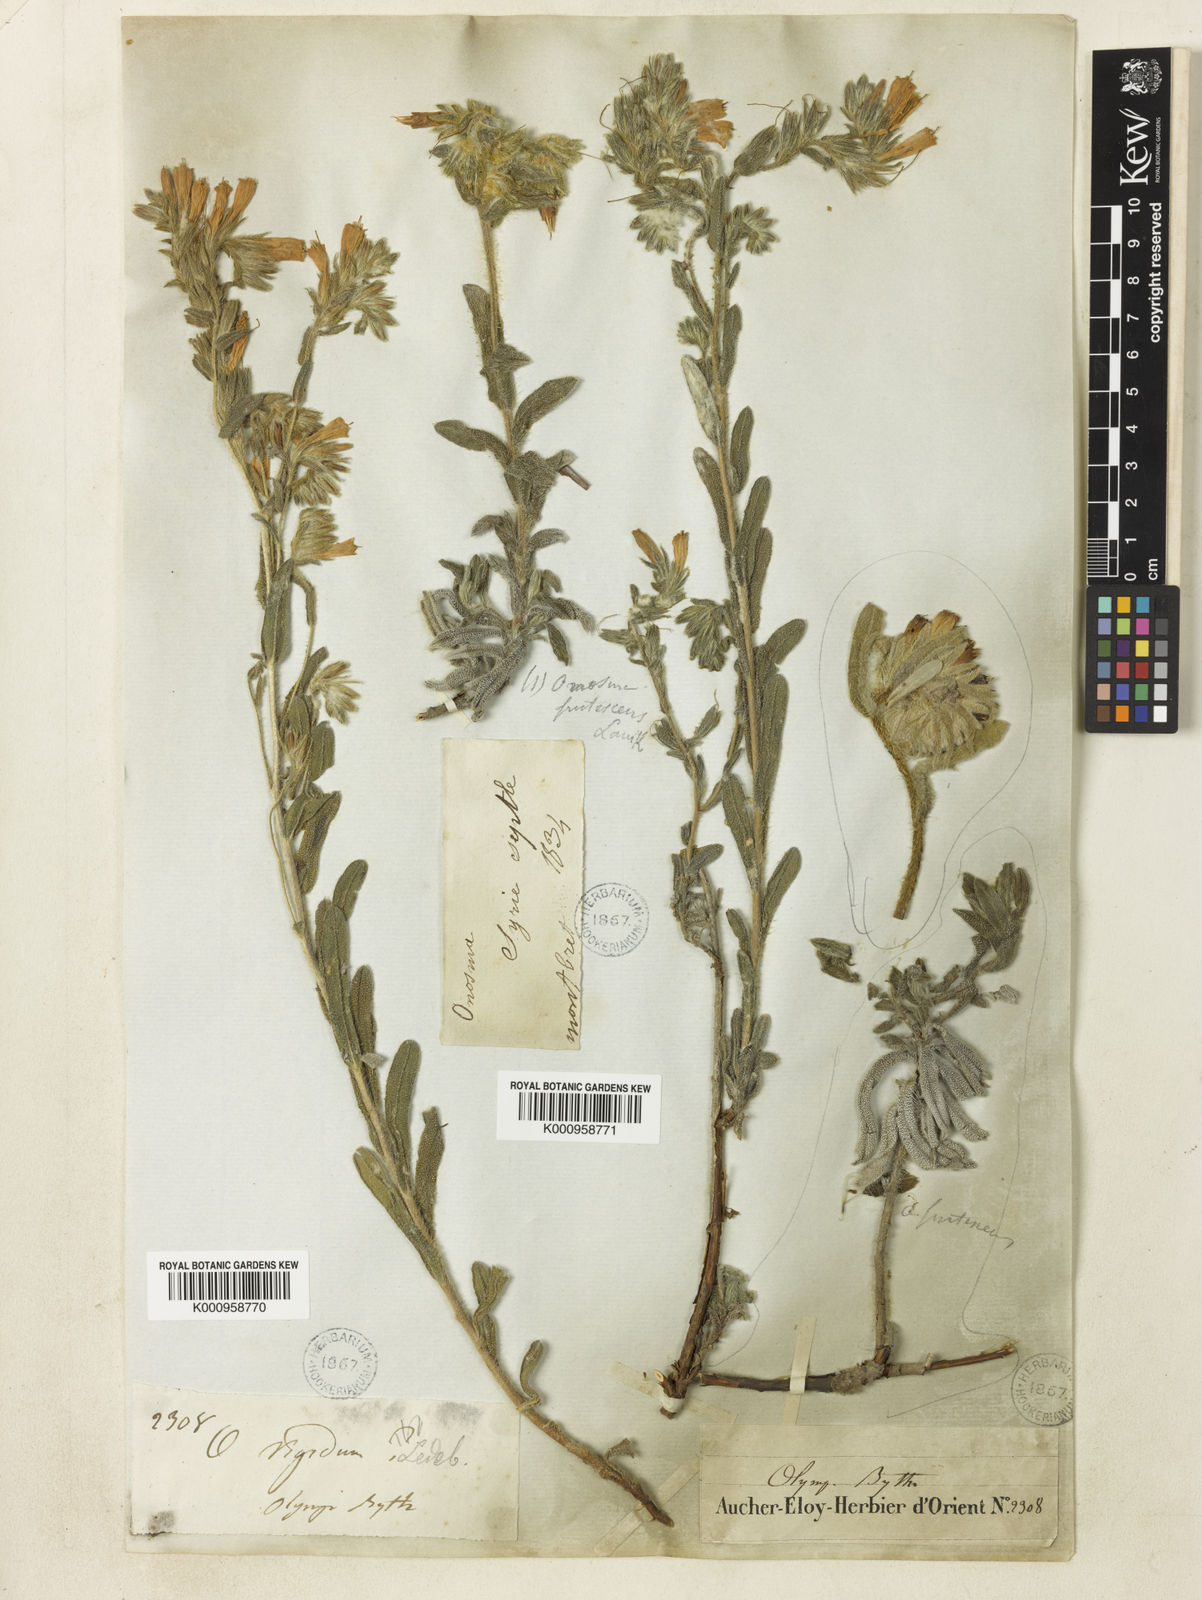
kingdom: Plantae
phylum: Tracheophyta
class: Magnoliopsida
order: Boraginales
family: Boraginaceae
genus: Onosma
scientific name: Onosma aucheriana
